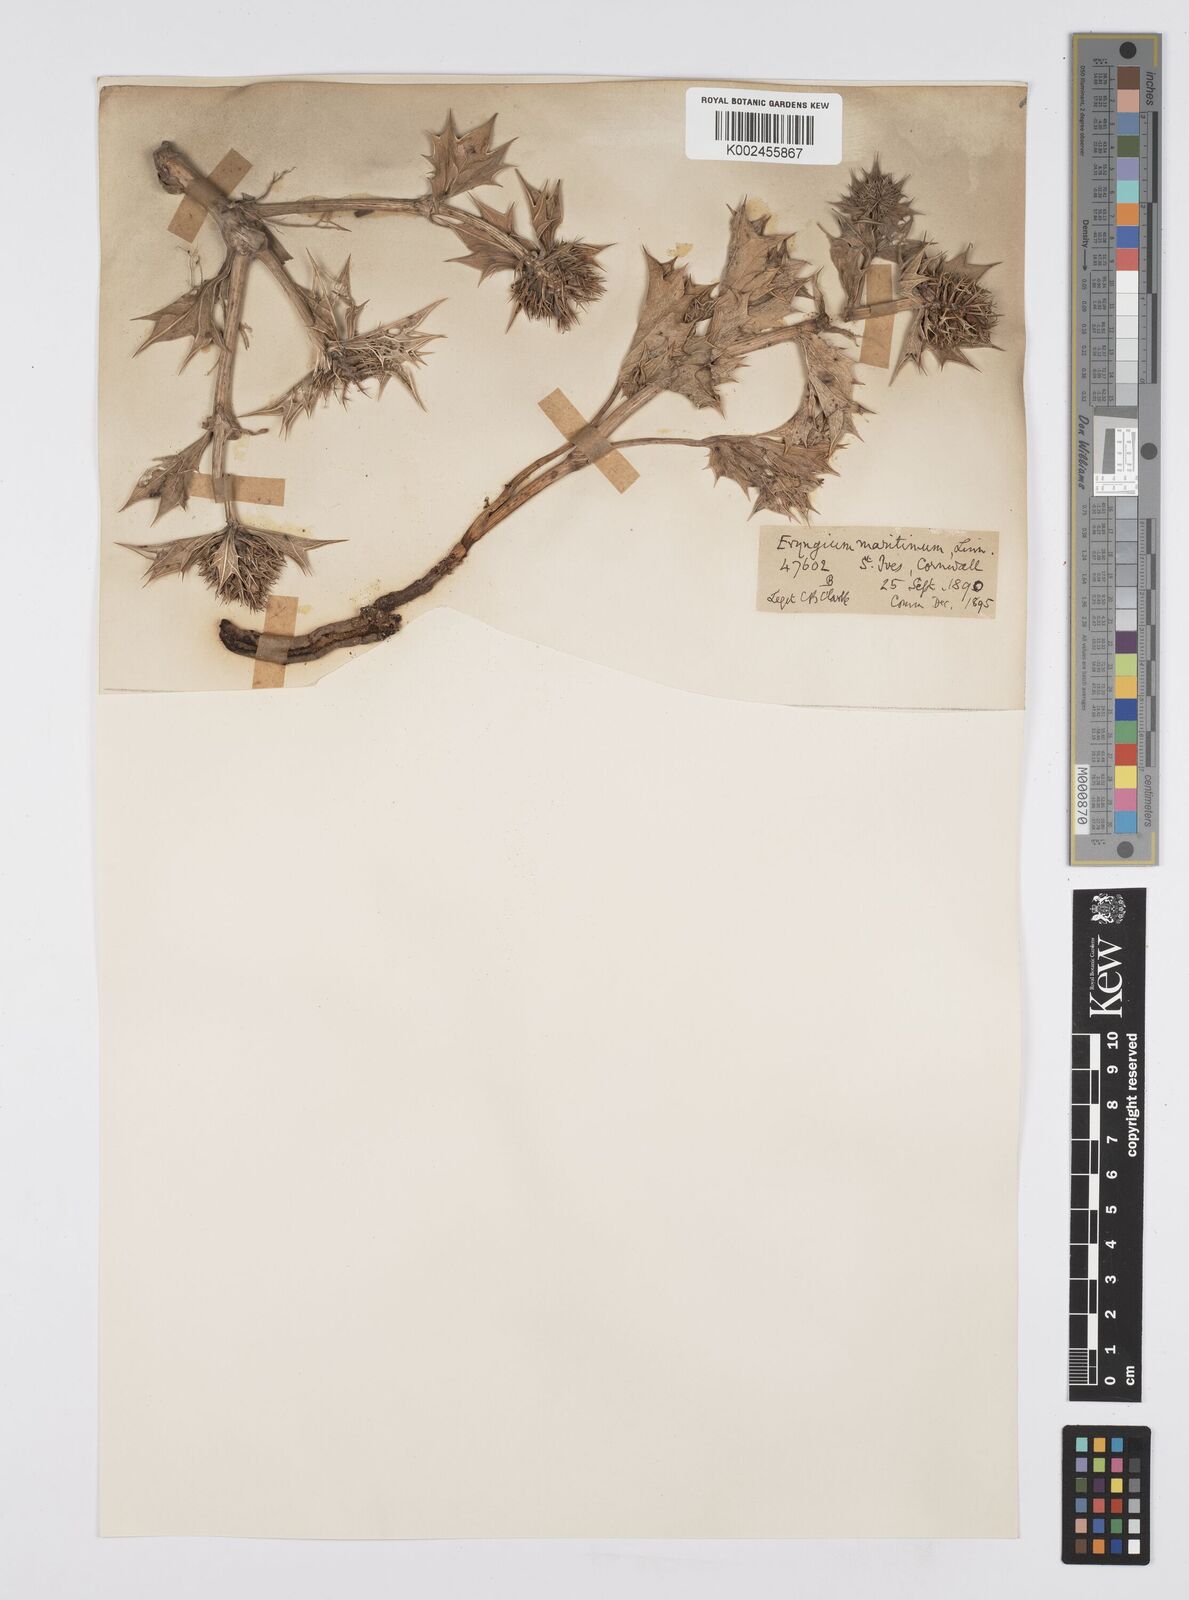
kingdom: Plantae
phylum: Tracheophyta
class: Magnoliopsida
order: Apiales
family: Apiaceae
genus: Eryngium
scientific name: Eryngium maritimum
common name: Sea-holly
